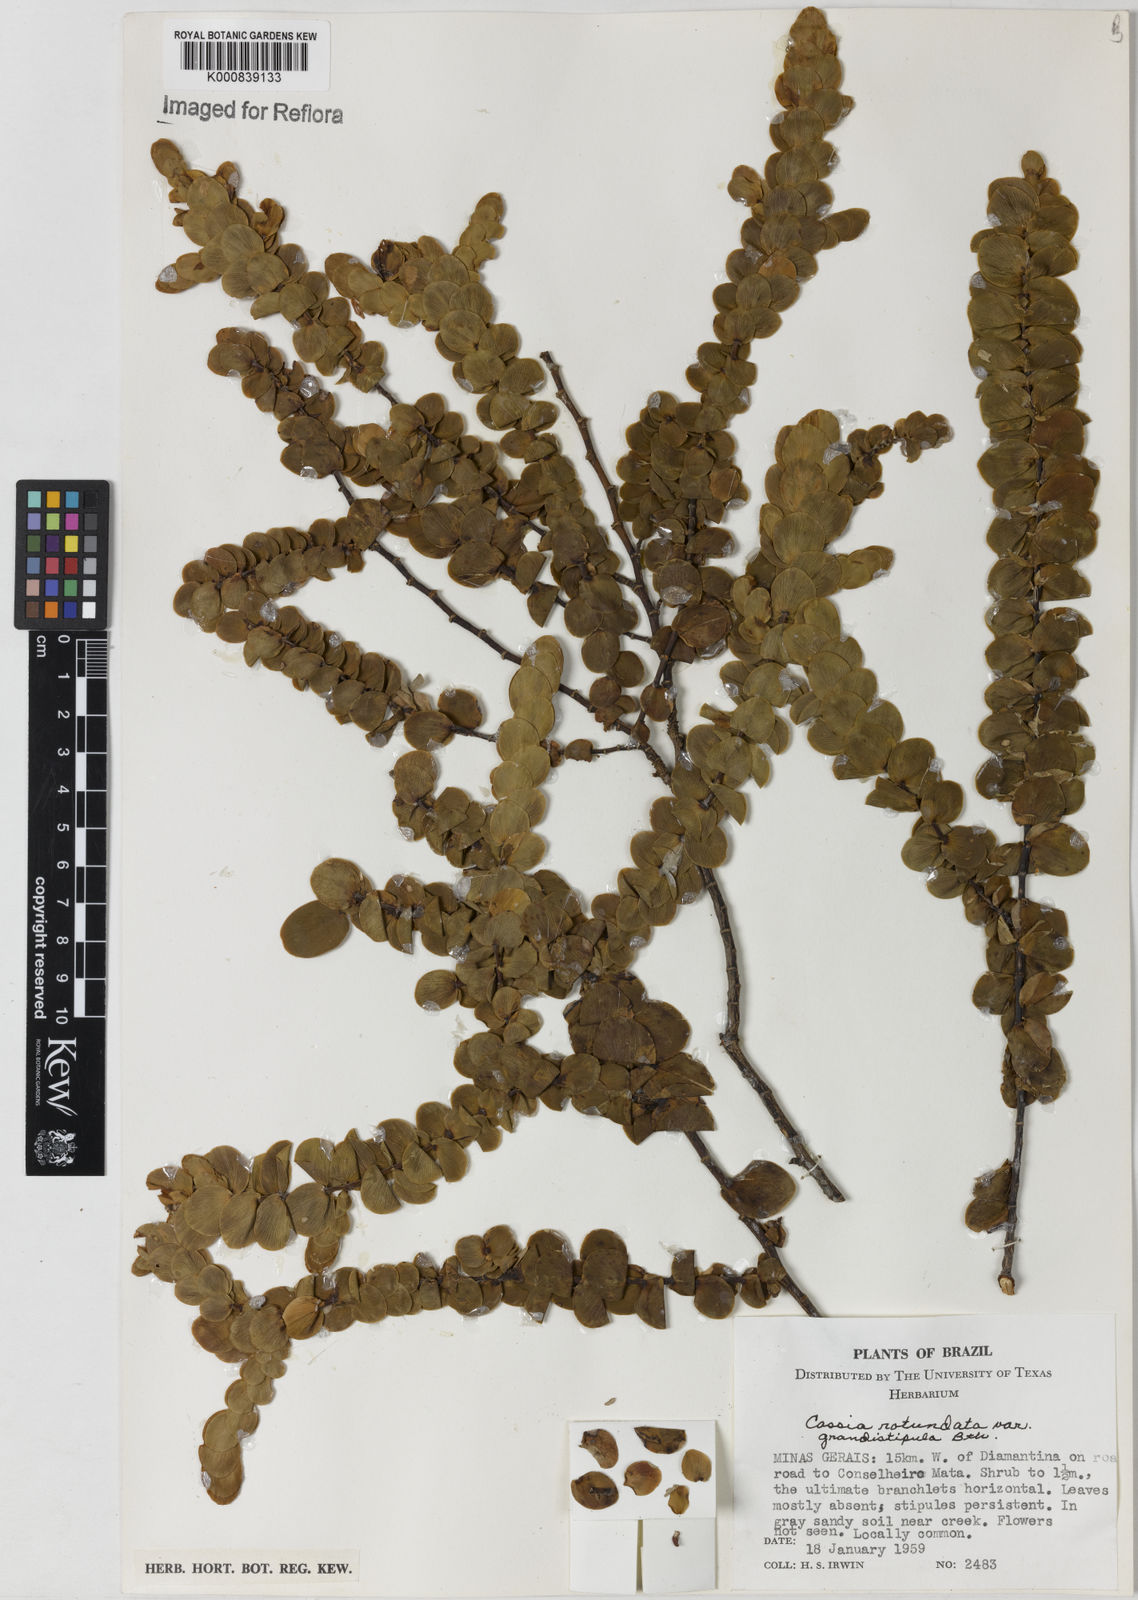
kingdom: Plantae
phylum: Tracheophyta
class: Magnoliopsida
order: Fabales
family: Fabaceae
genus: Chamaecrista
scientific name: Chamaecrista
